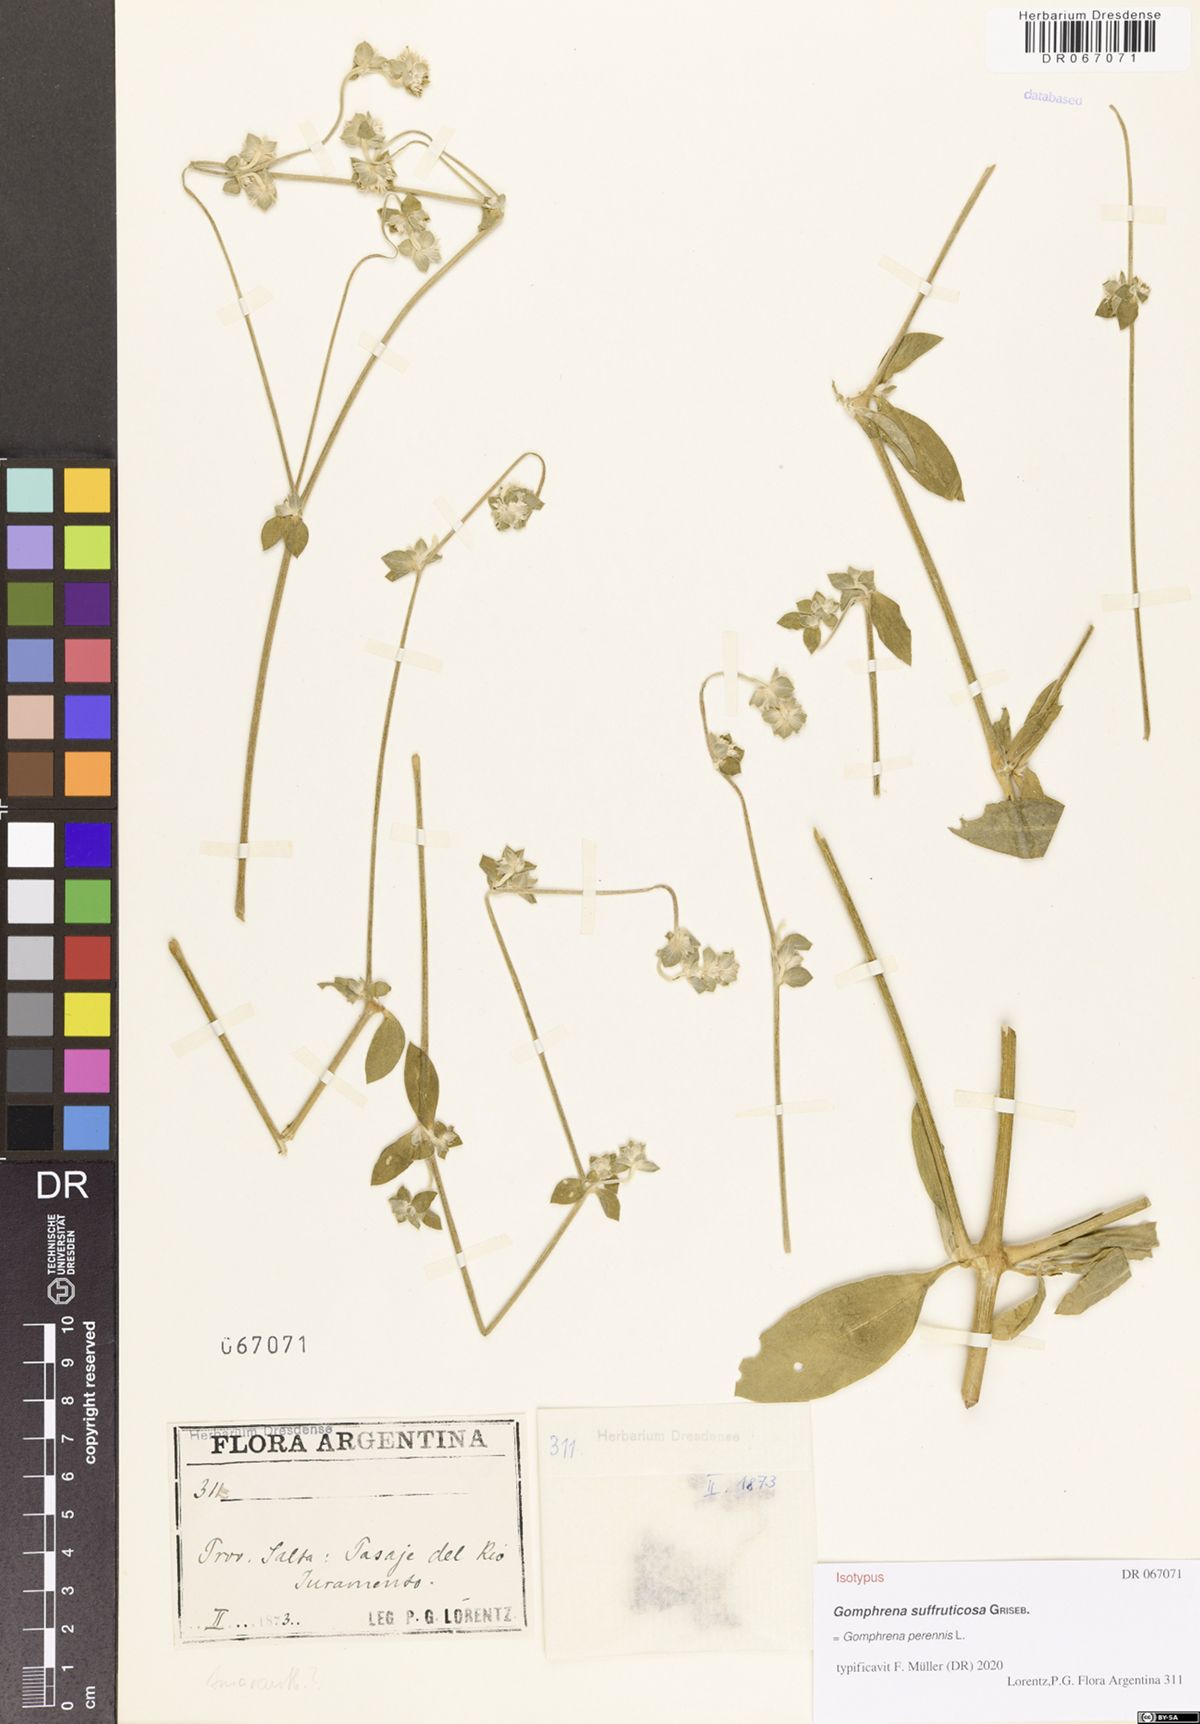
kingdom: Plantae
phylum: Tracheophyta
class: Magnoliopsida
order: Caryophyllales
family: Amaranthaceae
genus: Gomphrena
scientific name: Gomphrena perennis
